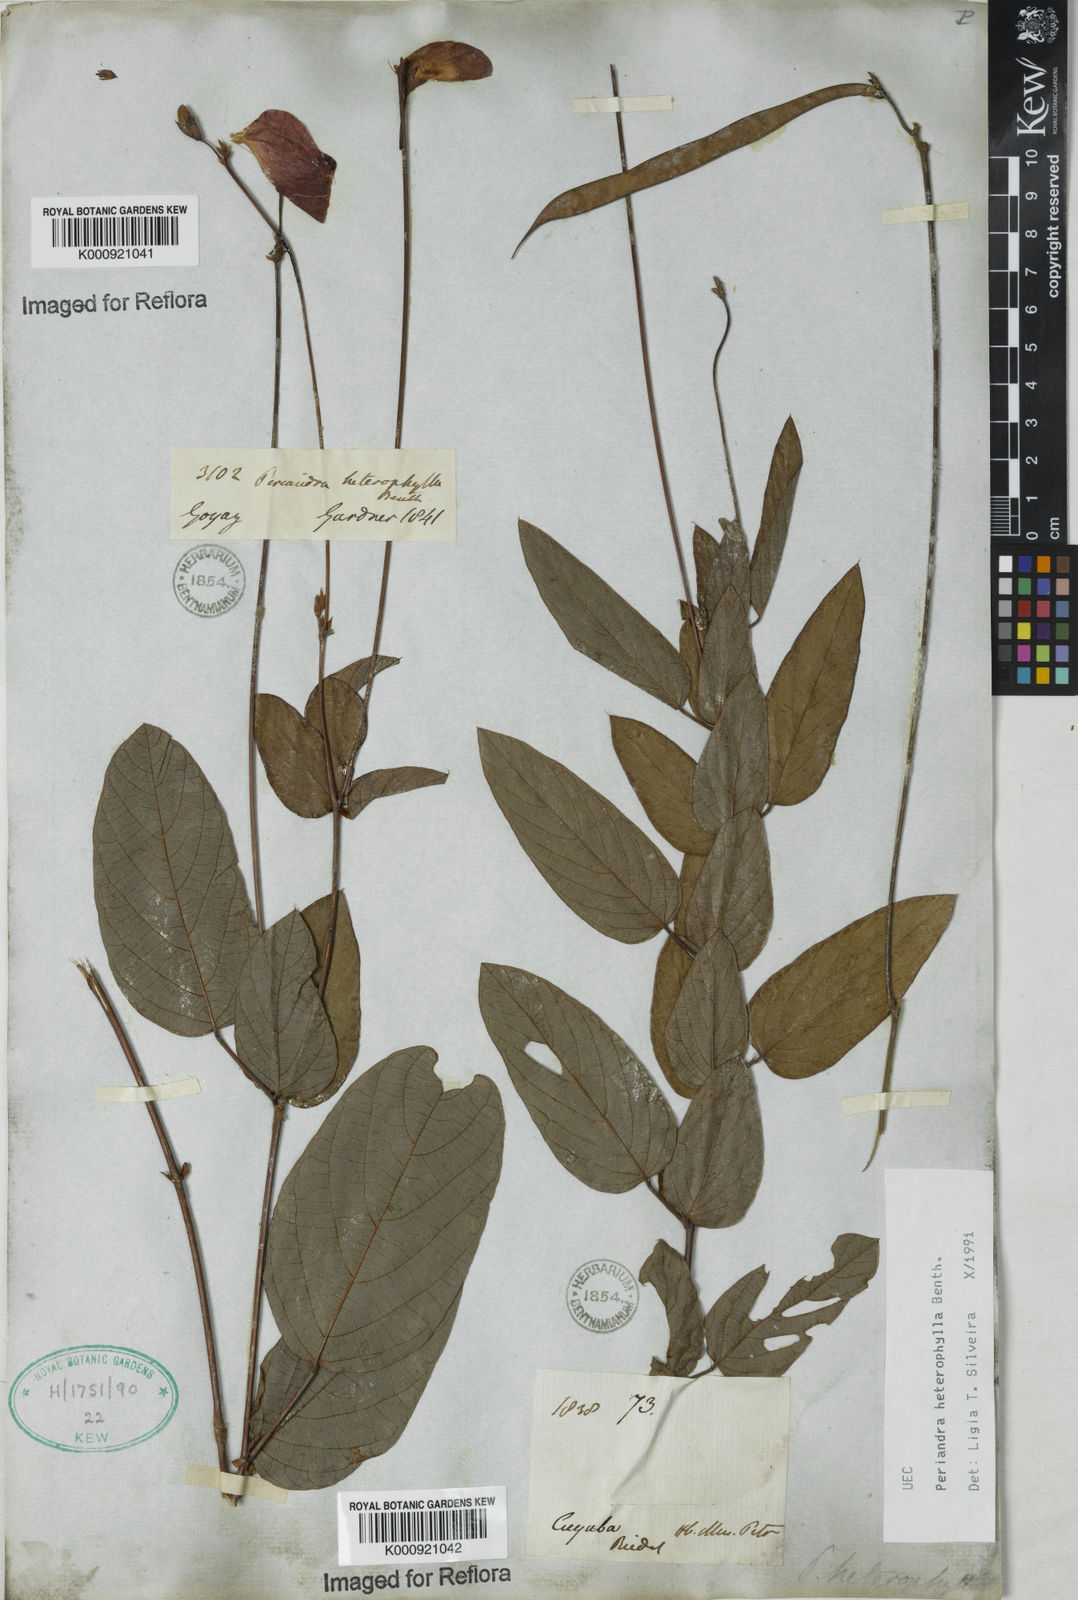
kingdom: Plantae
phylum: Tracheophyta
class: Magnoliopsida
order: Fabales
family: Fabaceae
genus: Periandra
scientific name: Periandra heterophylla
